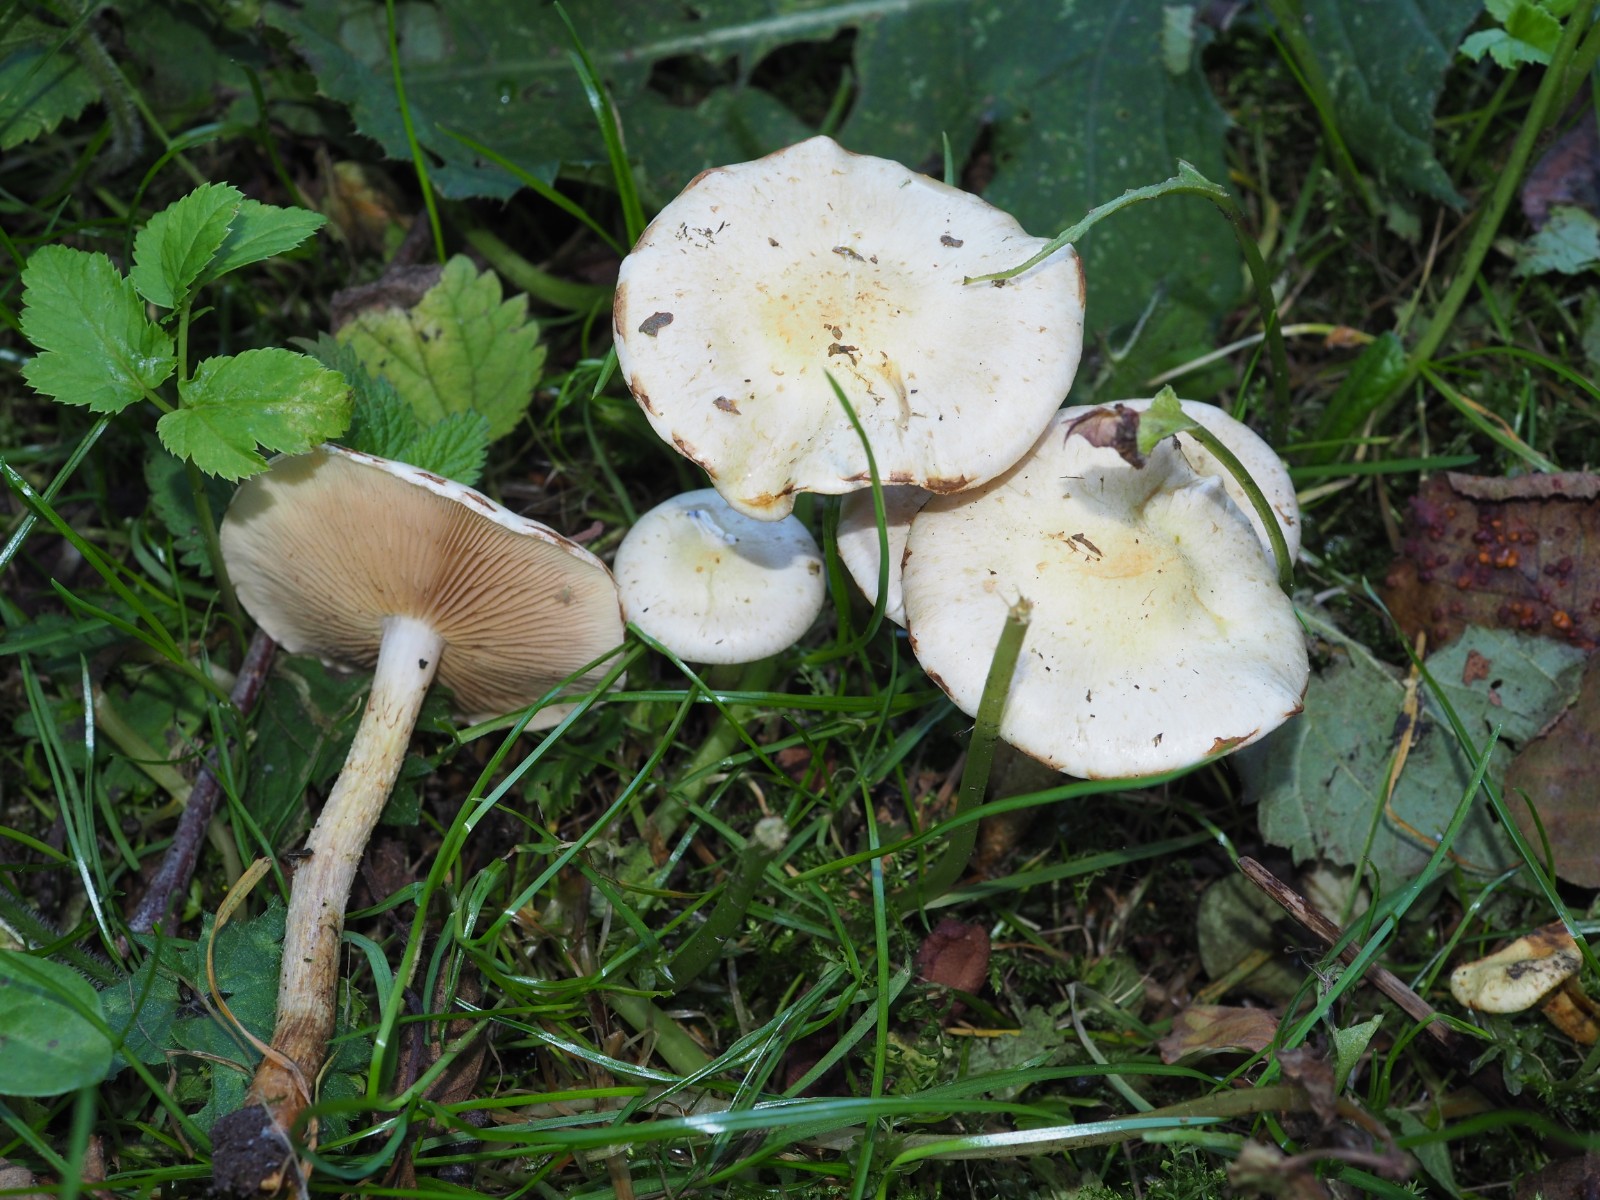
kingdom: Fungi
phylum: Basidiomycota
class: Agaricomycetes
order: Agaricales
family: Strophariaceae
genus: Pholiota
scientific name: Pholiota gummosa
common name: grøngul skælhat
